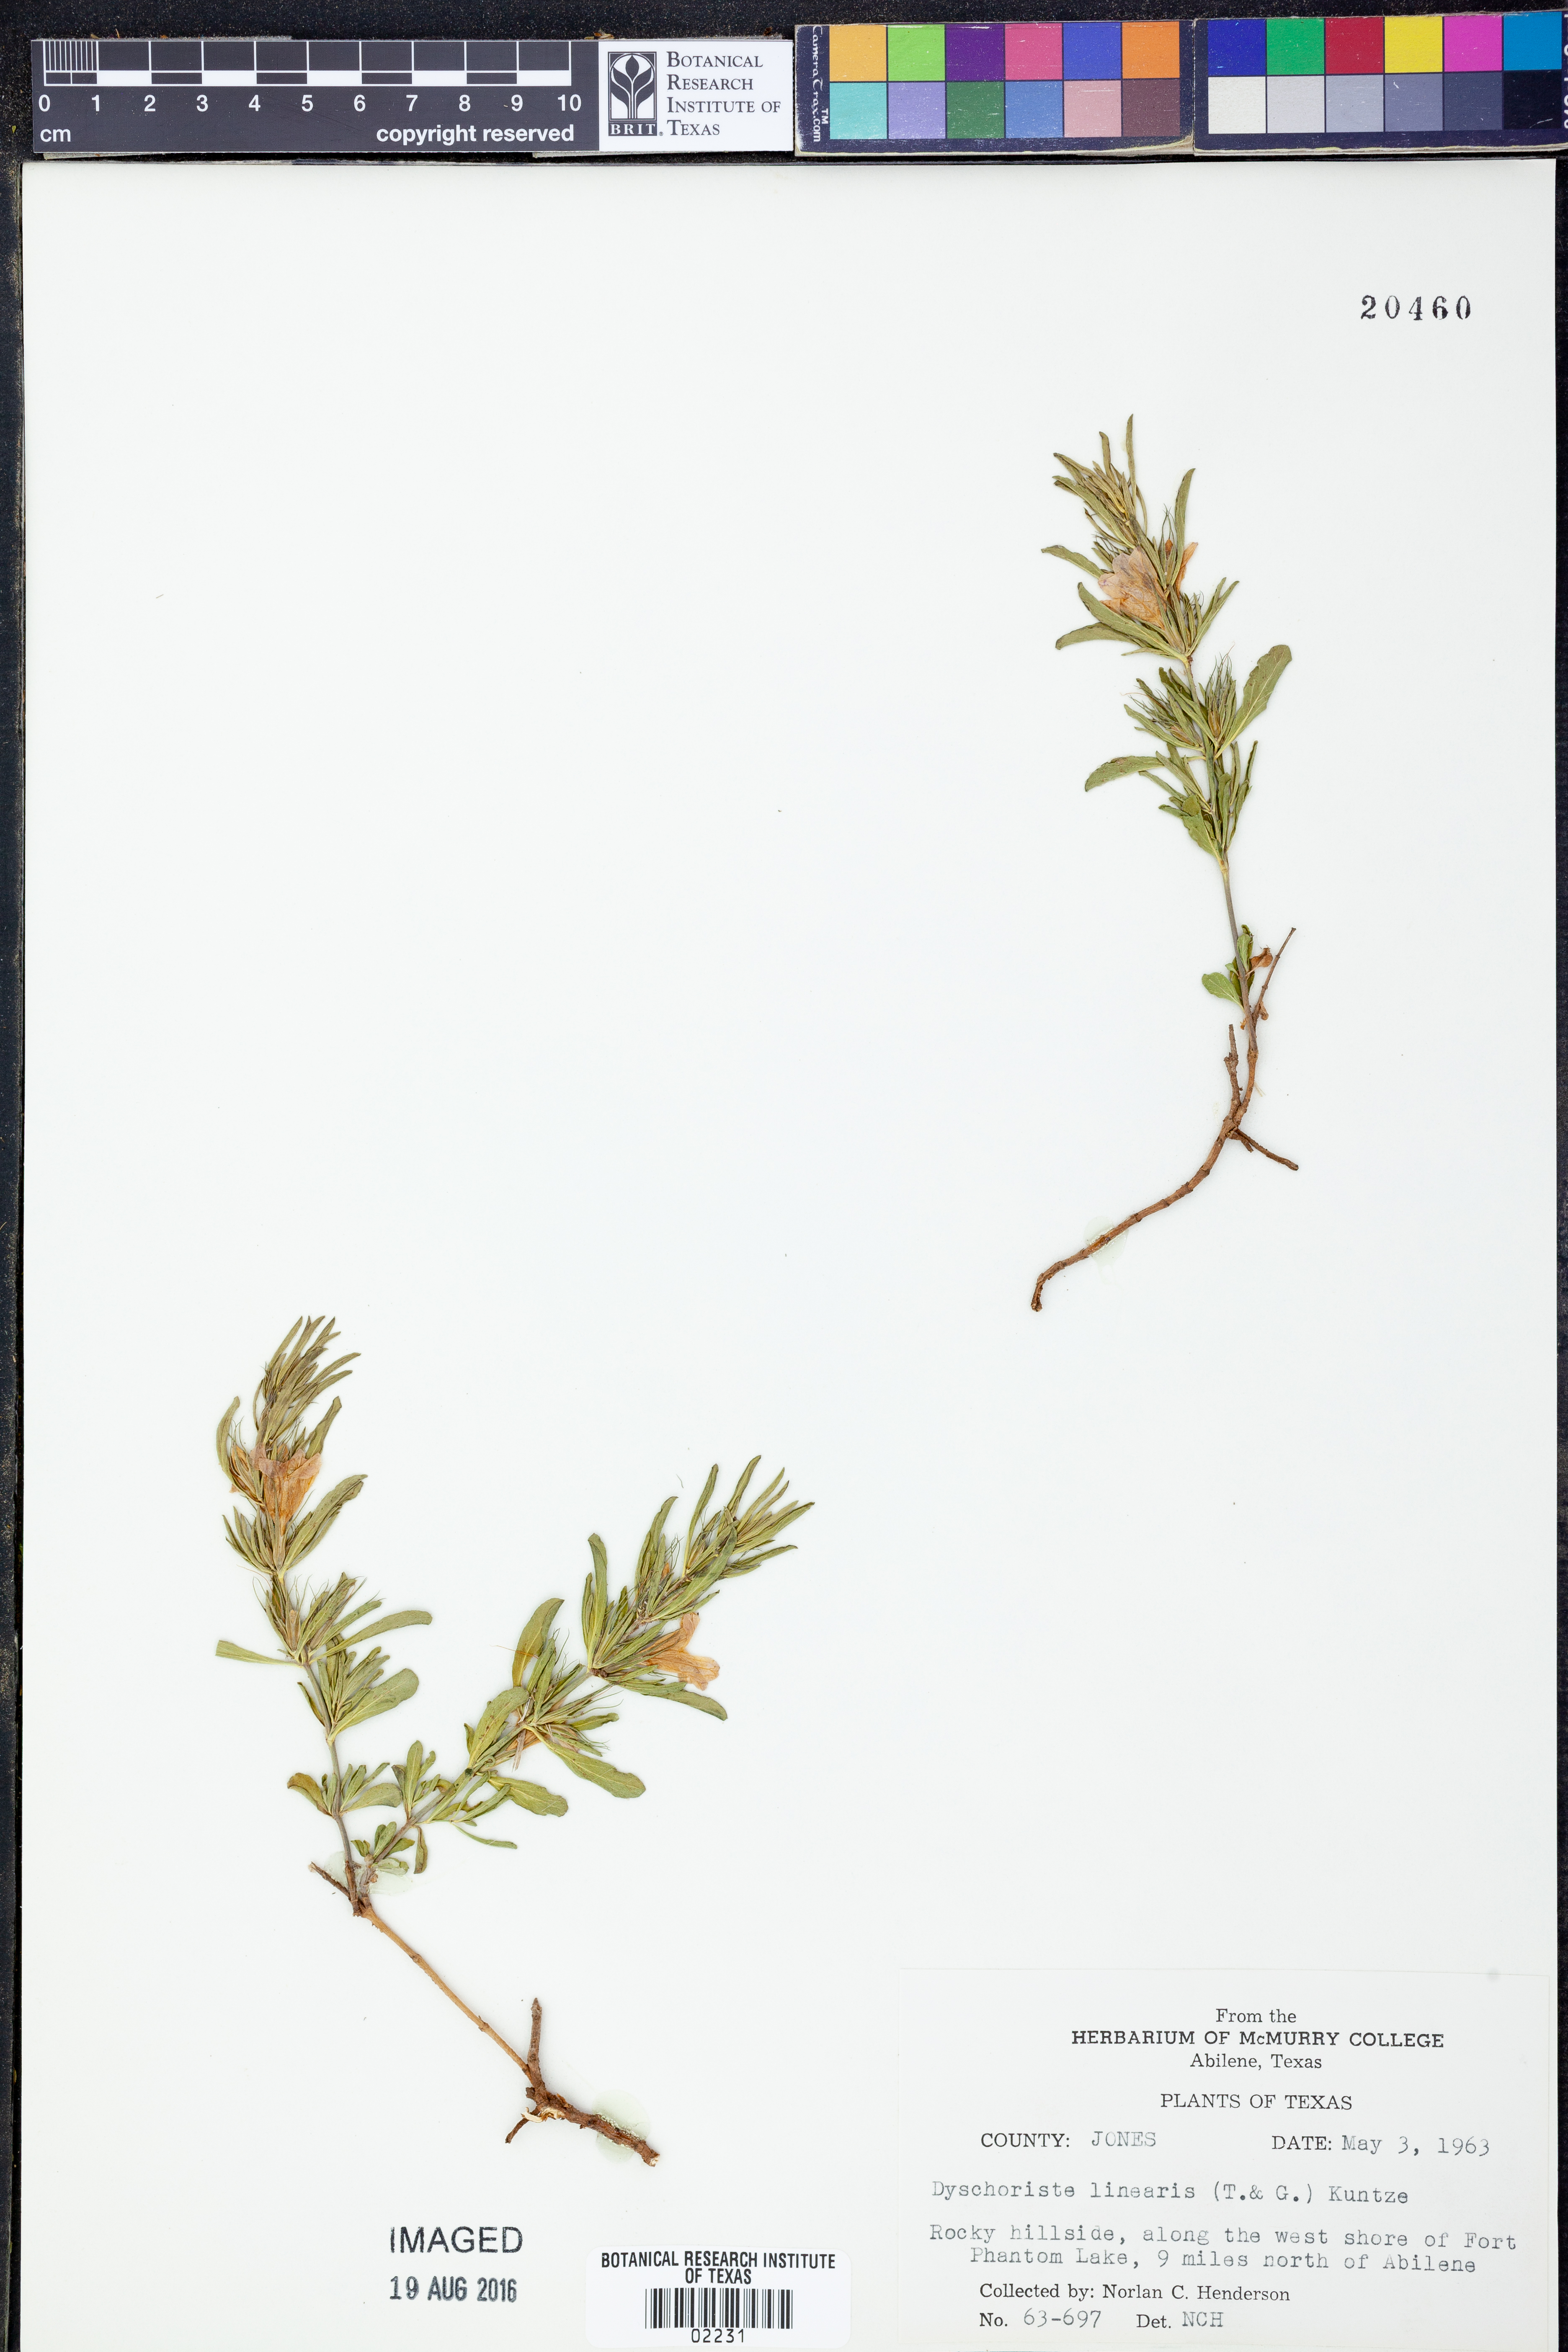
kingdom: Plantae
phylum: Tracheophyta
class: Magnoliopsida
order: Lamiales
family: Acanthaceae
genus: Dyschoriste
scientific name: Dyschoriste linearis
